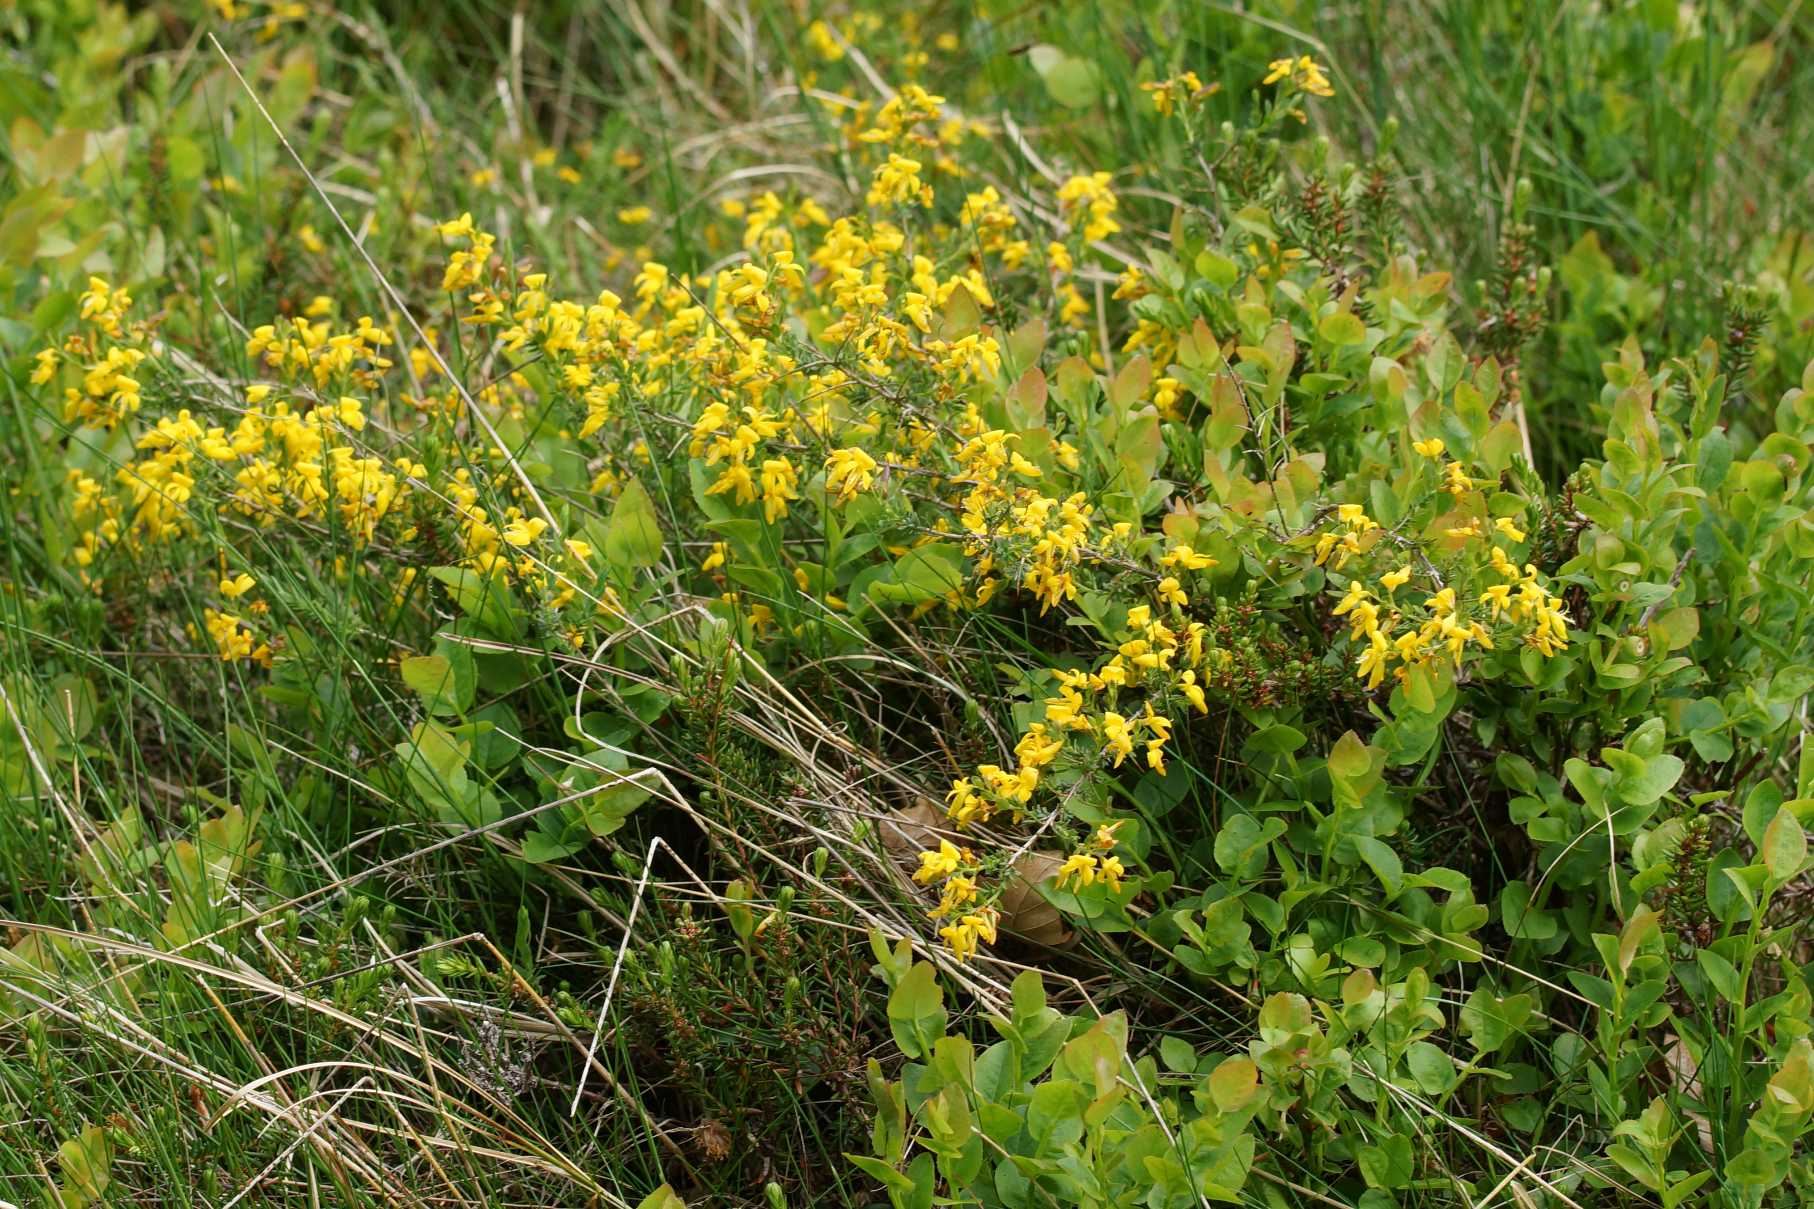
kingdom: Plantae
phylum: Tracheophyta
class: Magnoliopsida
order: Fabales
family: Fabaceae
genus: Genista
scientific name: Genista anglica
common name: Engelsk visse
